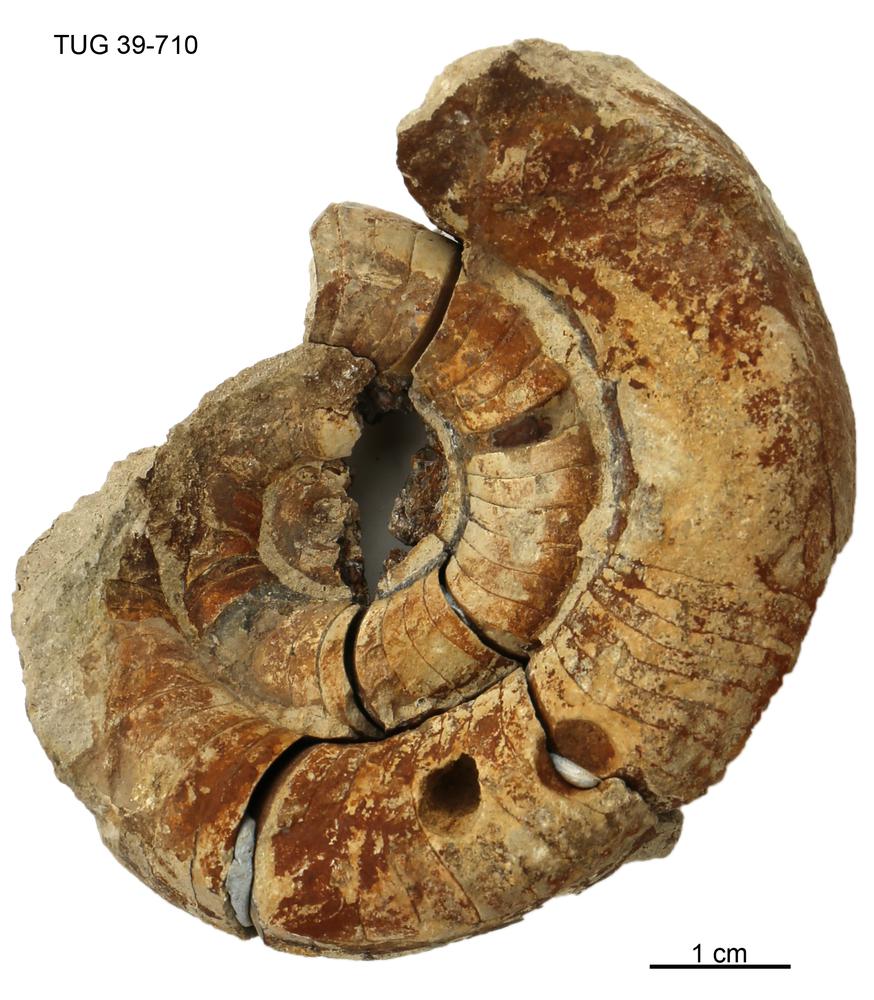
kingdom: Animalia
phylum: Mollusca
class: Cephalopoda
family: Trocholitidae
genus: Discoceras
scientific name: Discoceras
